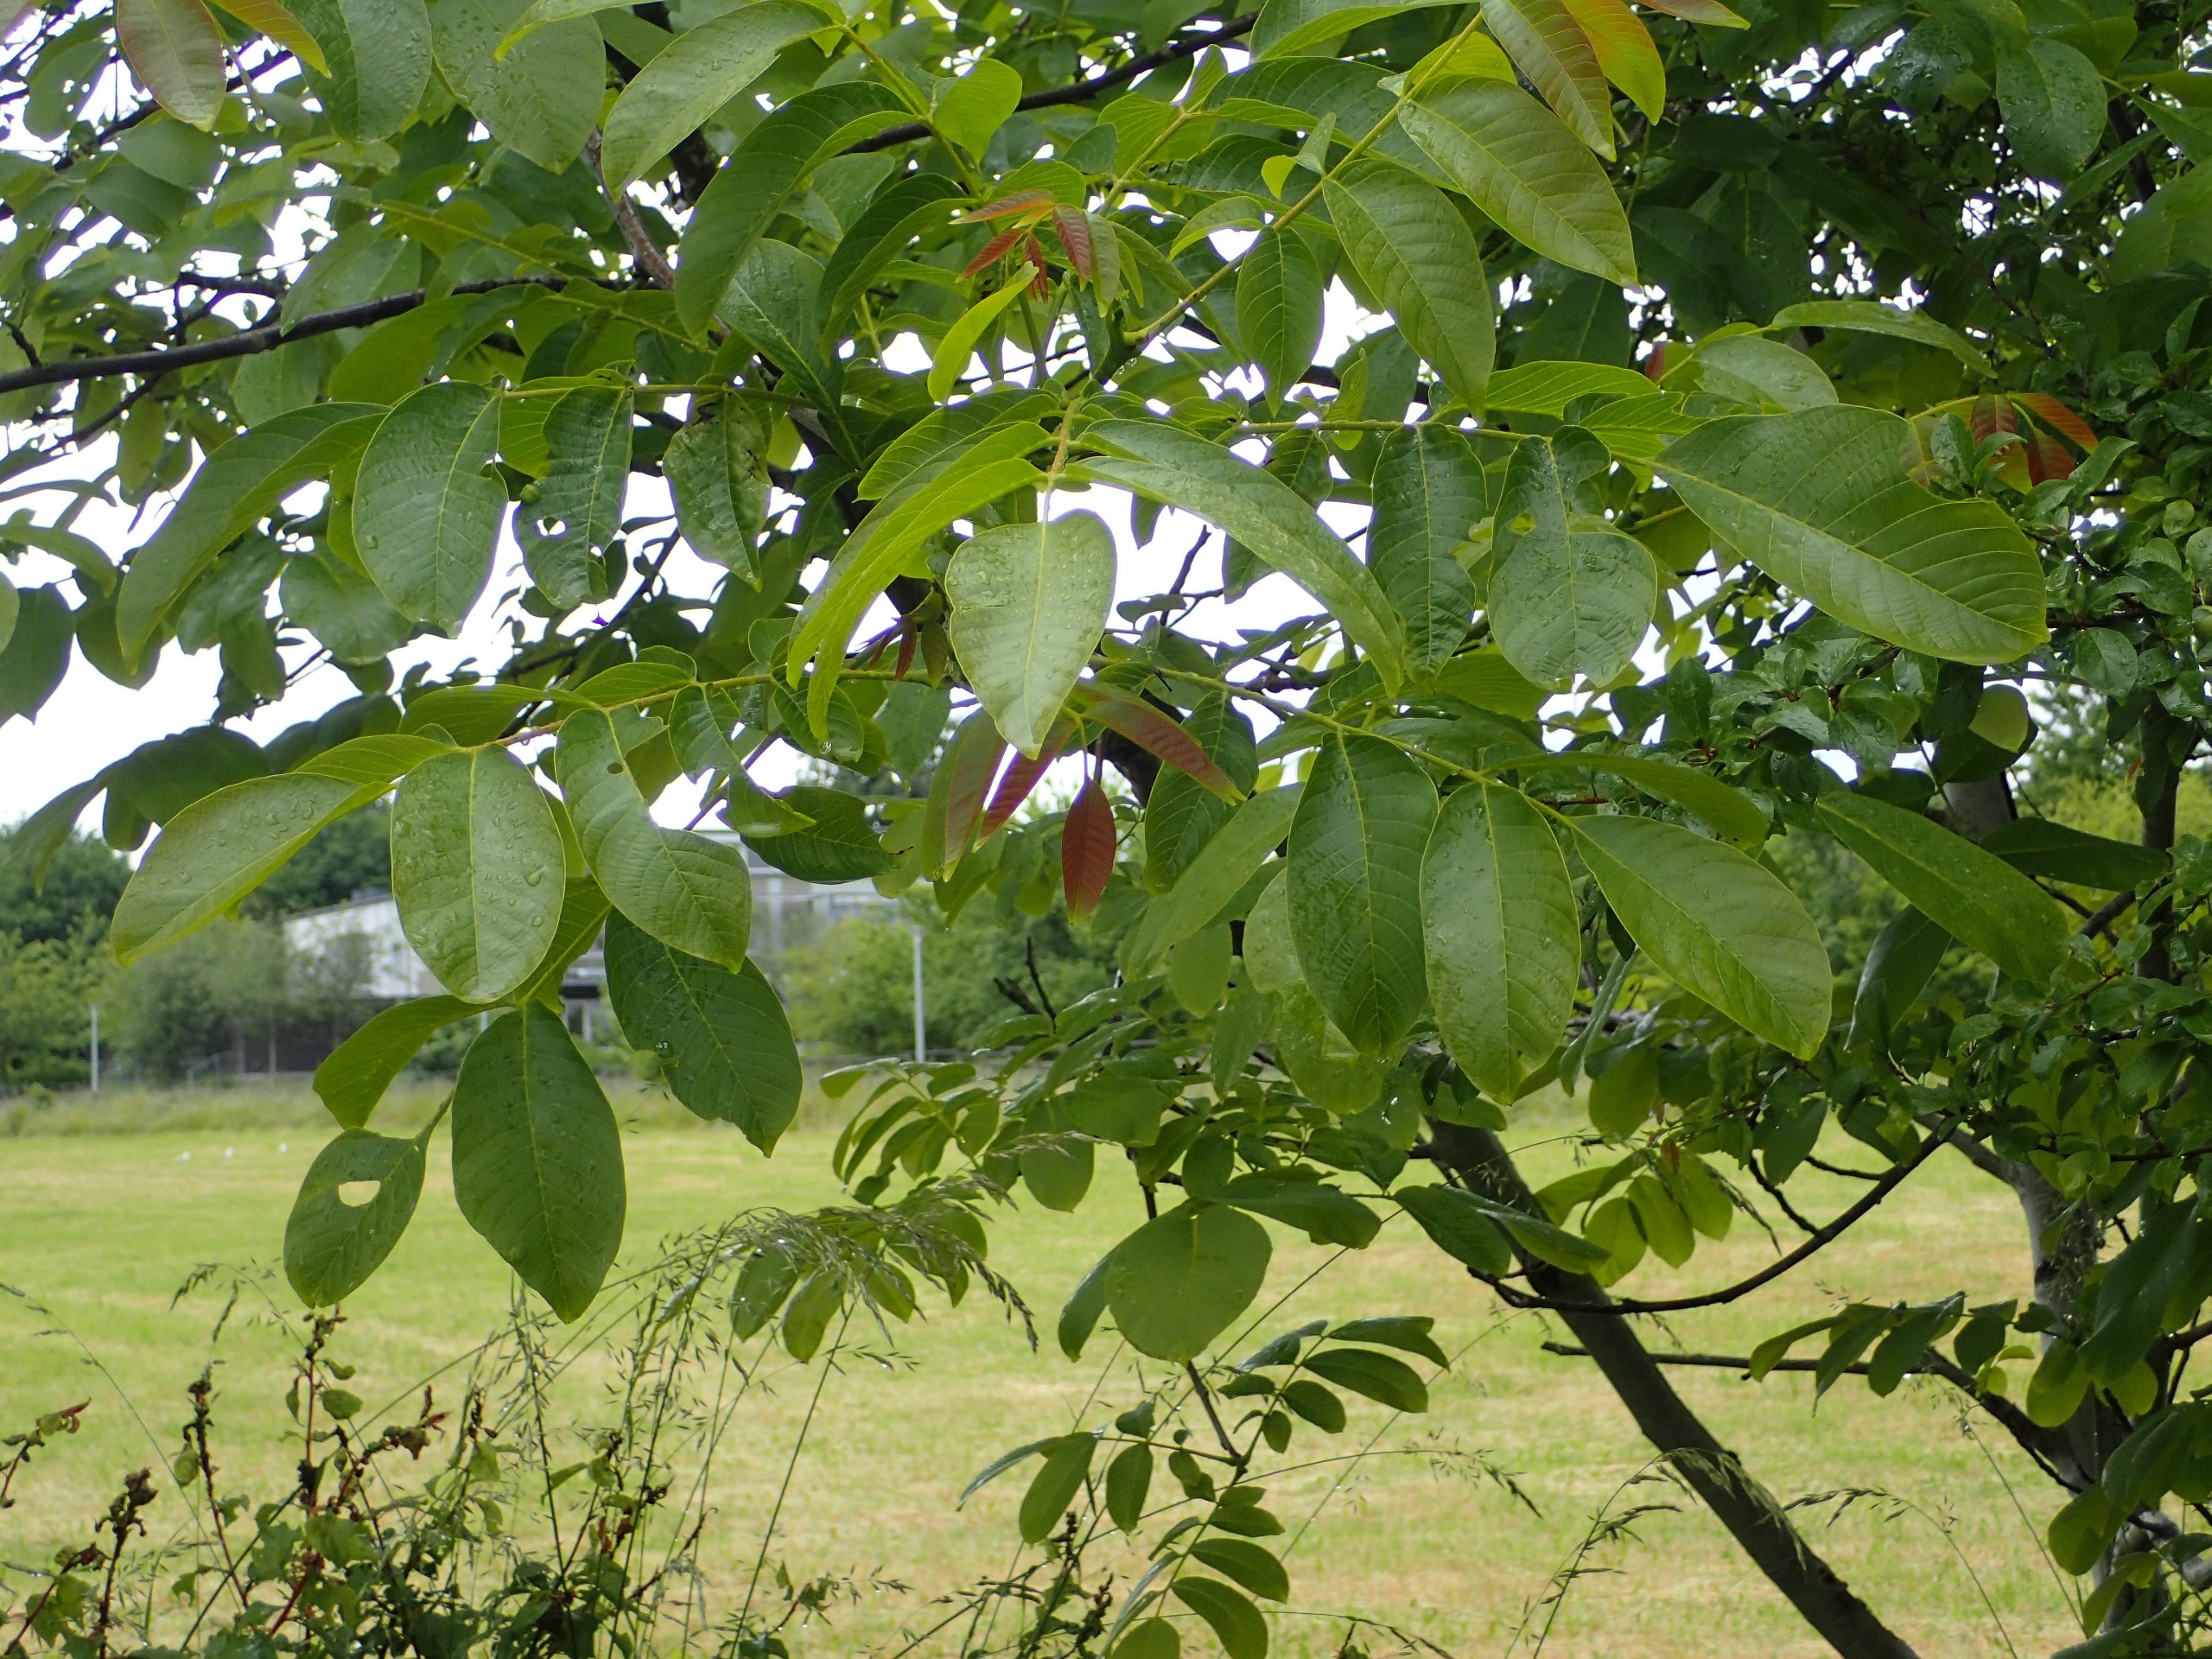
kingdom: Plantae
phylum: Tracheophyta
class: Magnoliopsida
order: Fagales
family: Juglandaceae
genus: Juglans
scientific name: Juglans regia
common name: Almindelig valnød
